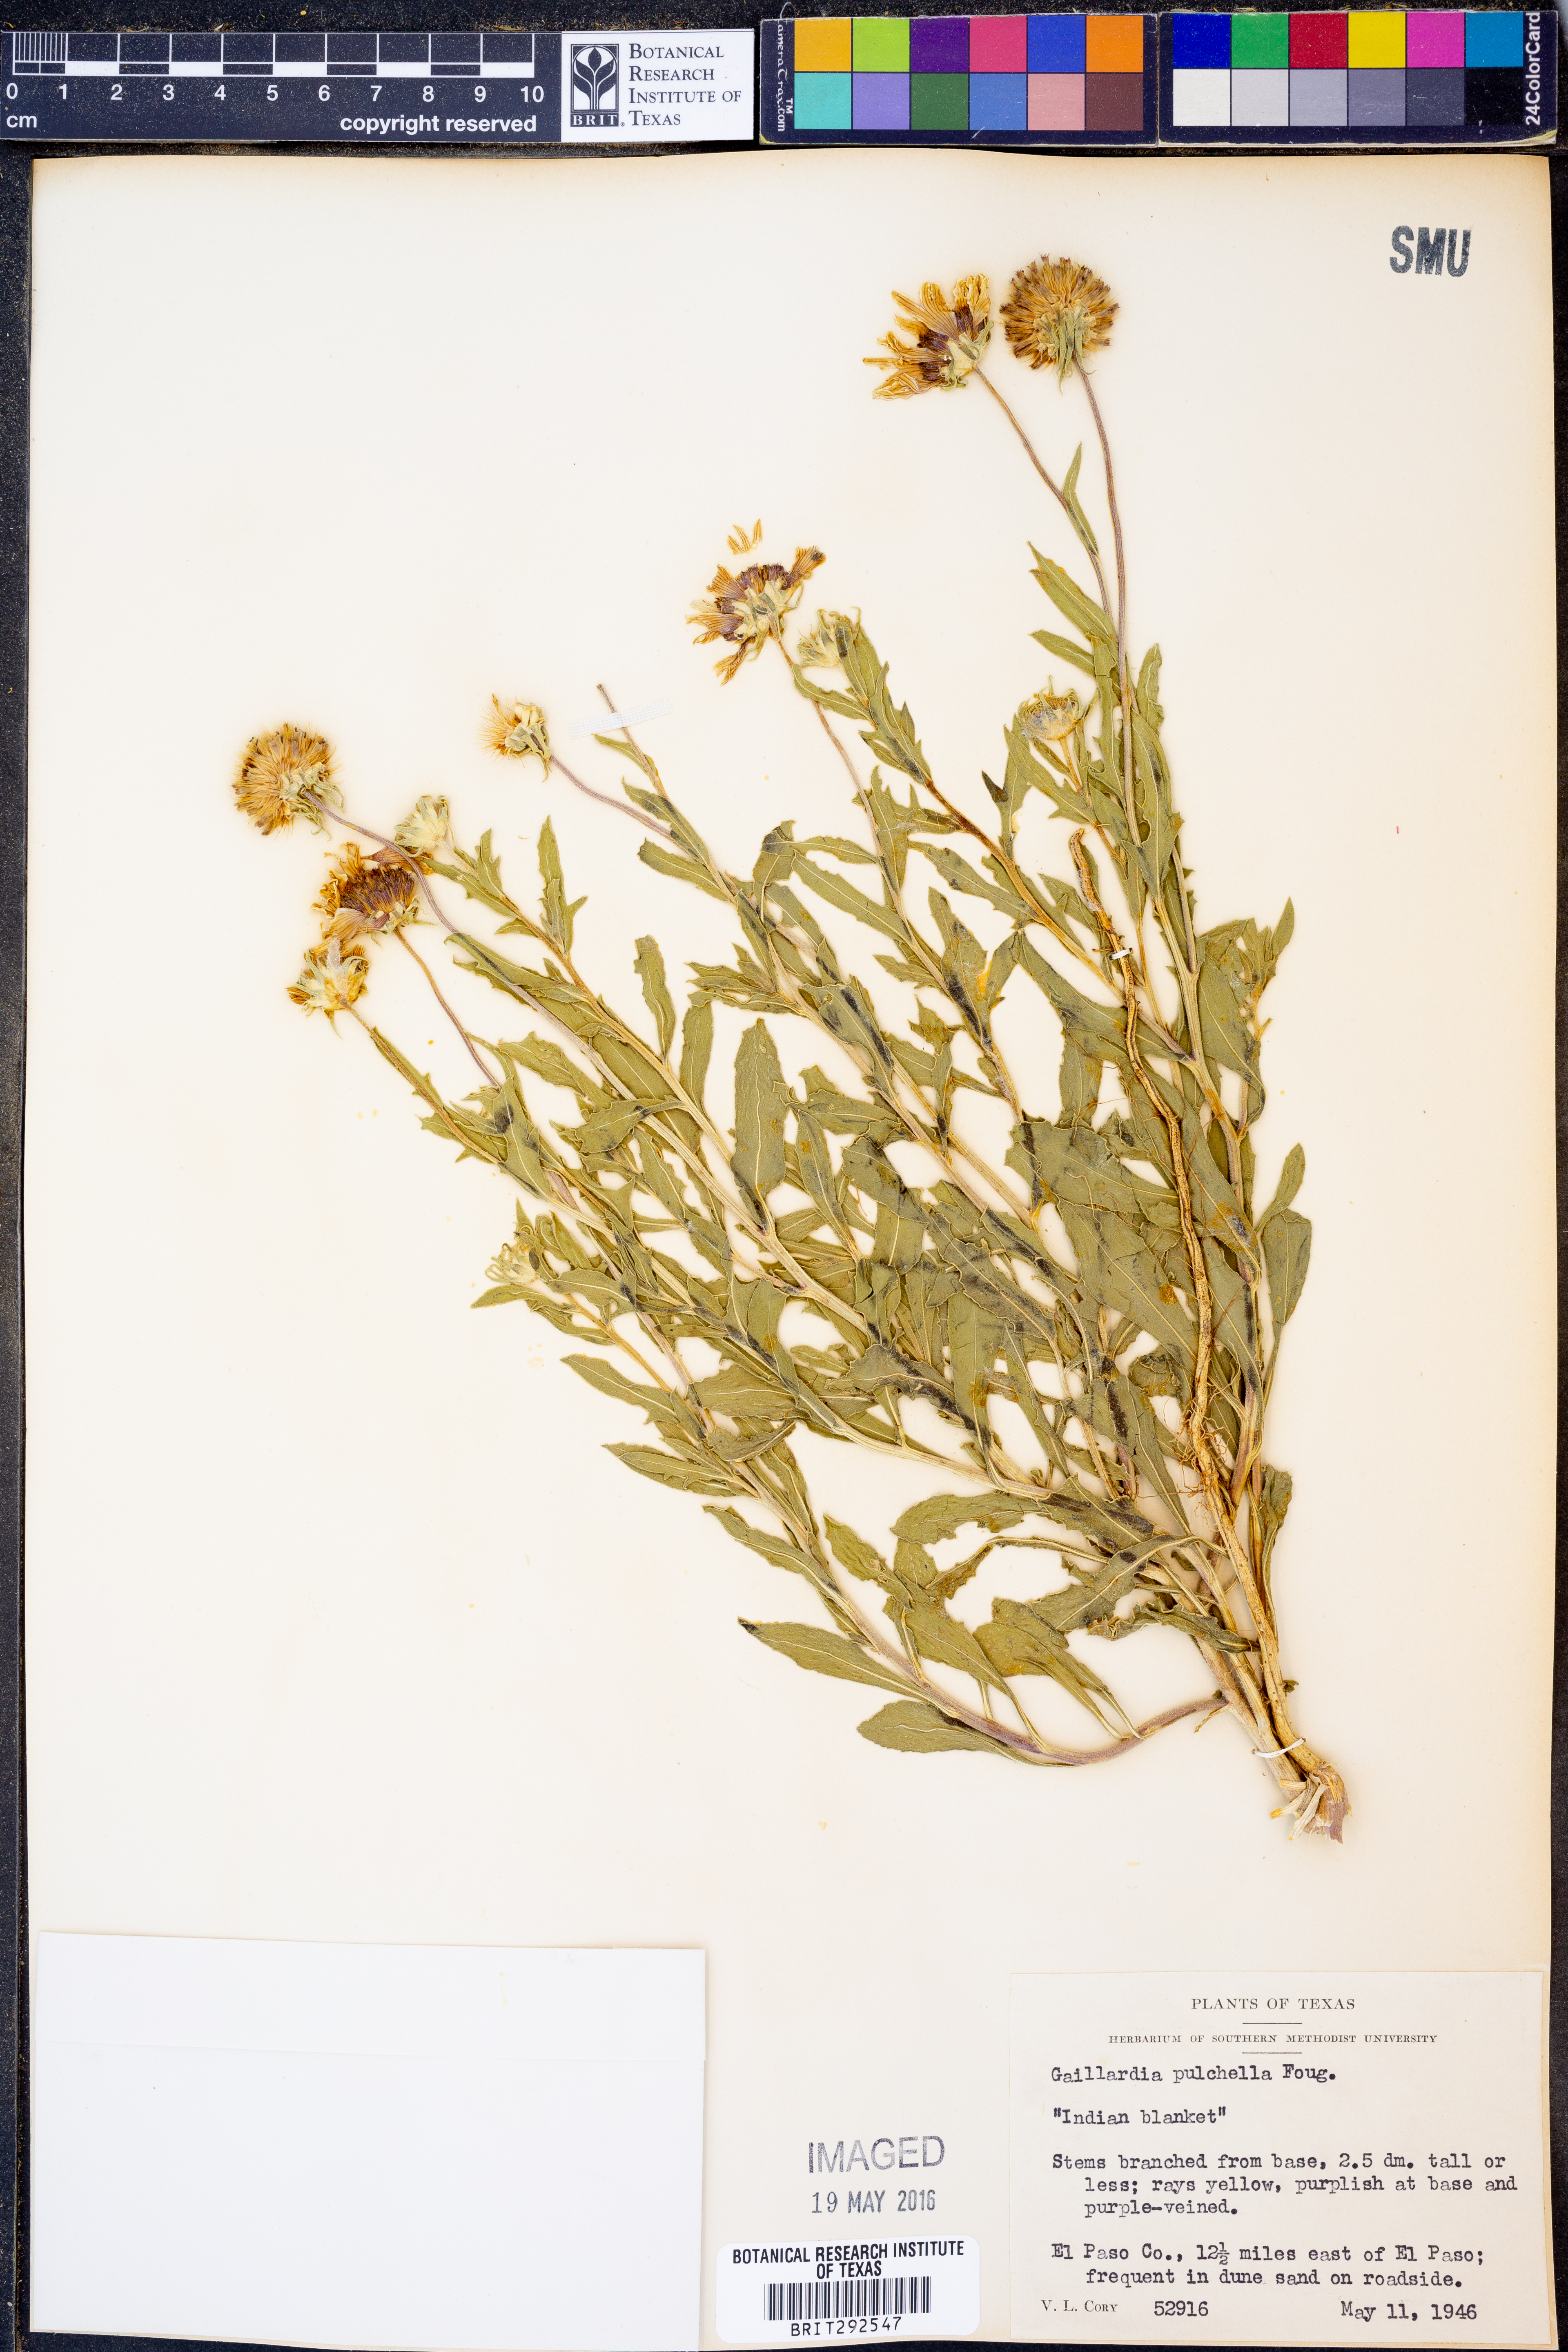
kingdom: Plantae
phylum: Tracheophyta
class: Magnoliopsida
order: Asterales
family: Asteraceae
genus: Gaillardia
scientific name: Gaillardia pulchella
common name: Firewheel
